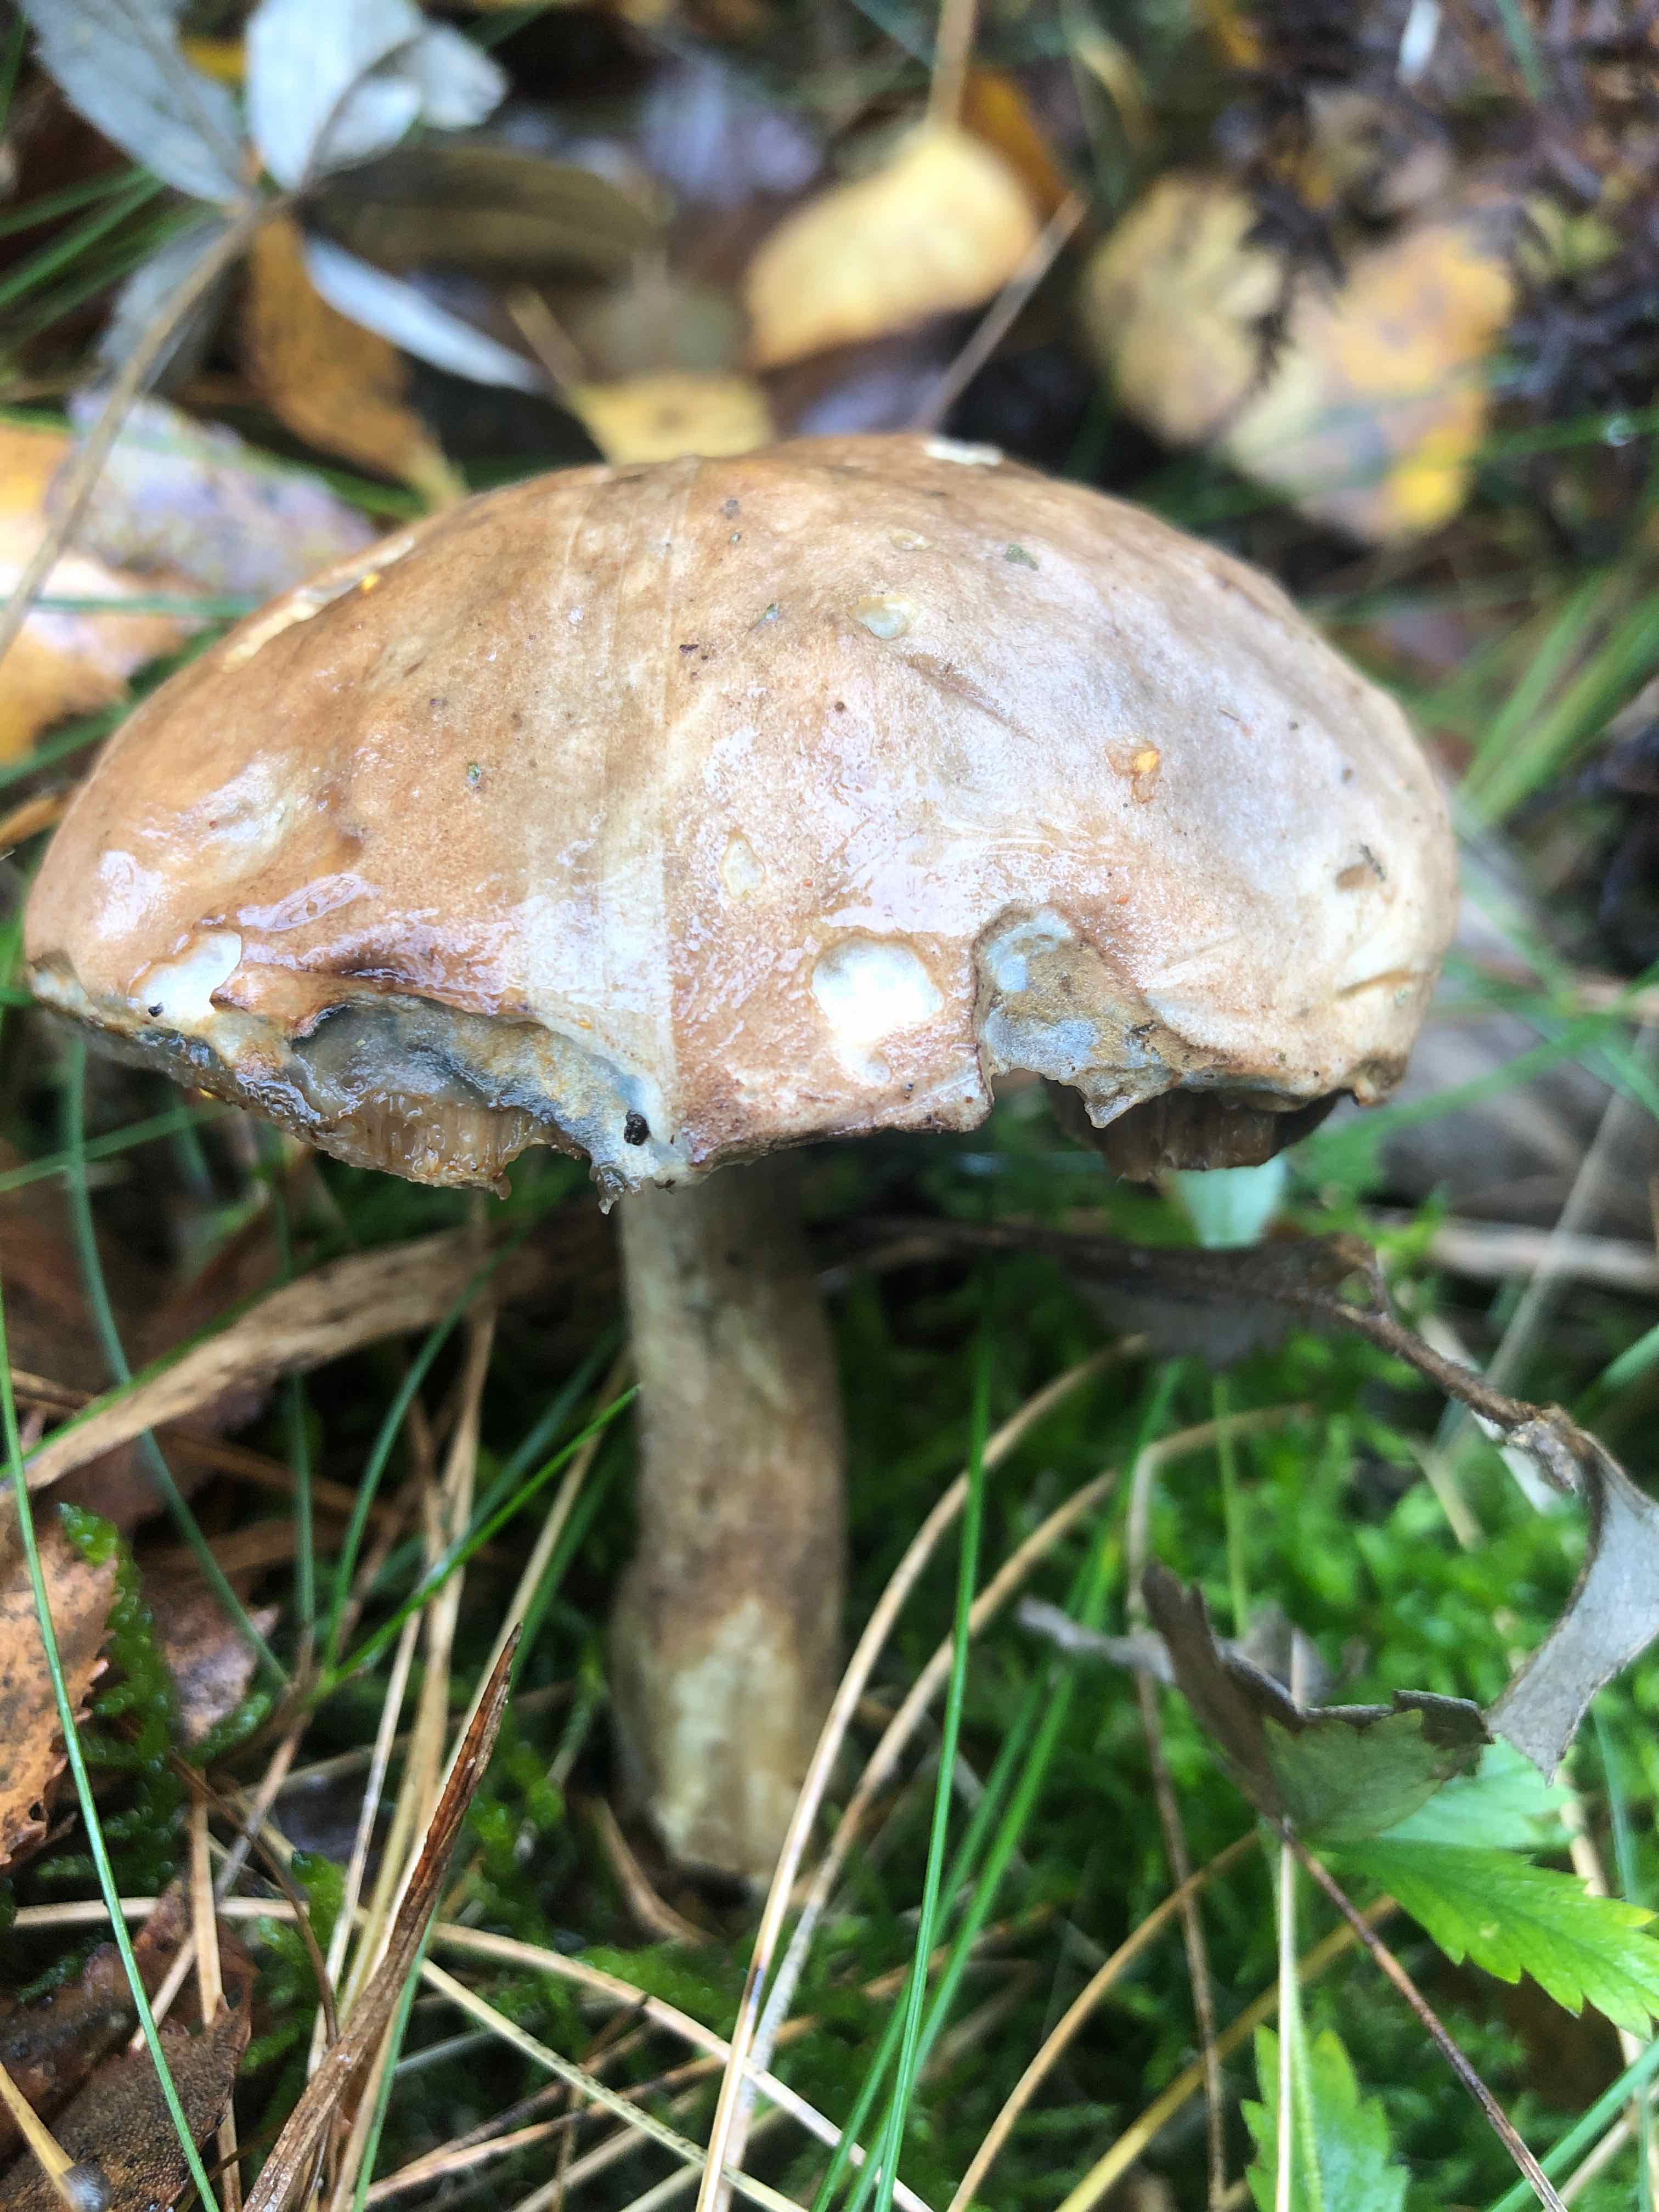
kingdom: Fungi
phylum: Basidiomycota
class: Agaricomycetes
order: Boletales
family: Boletaceae
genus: Leccinum
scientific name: Leccinum
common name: skælrørhat
